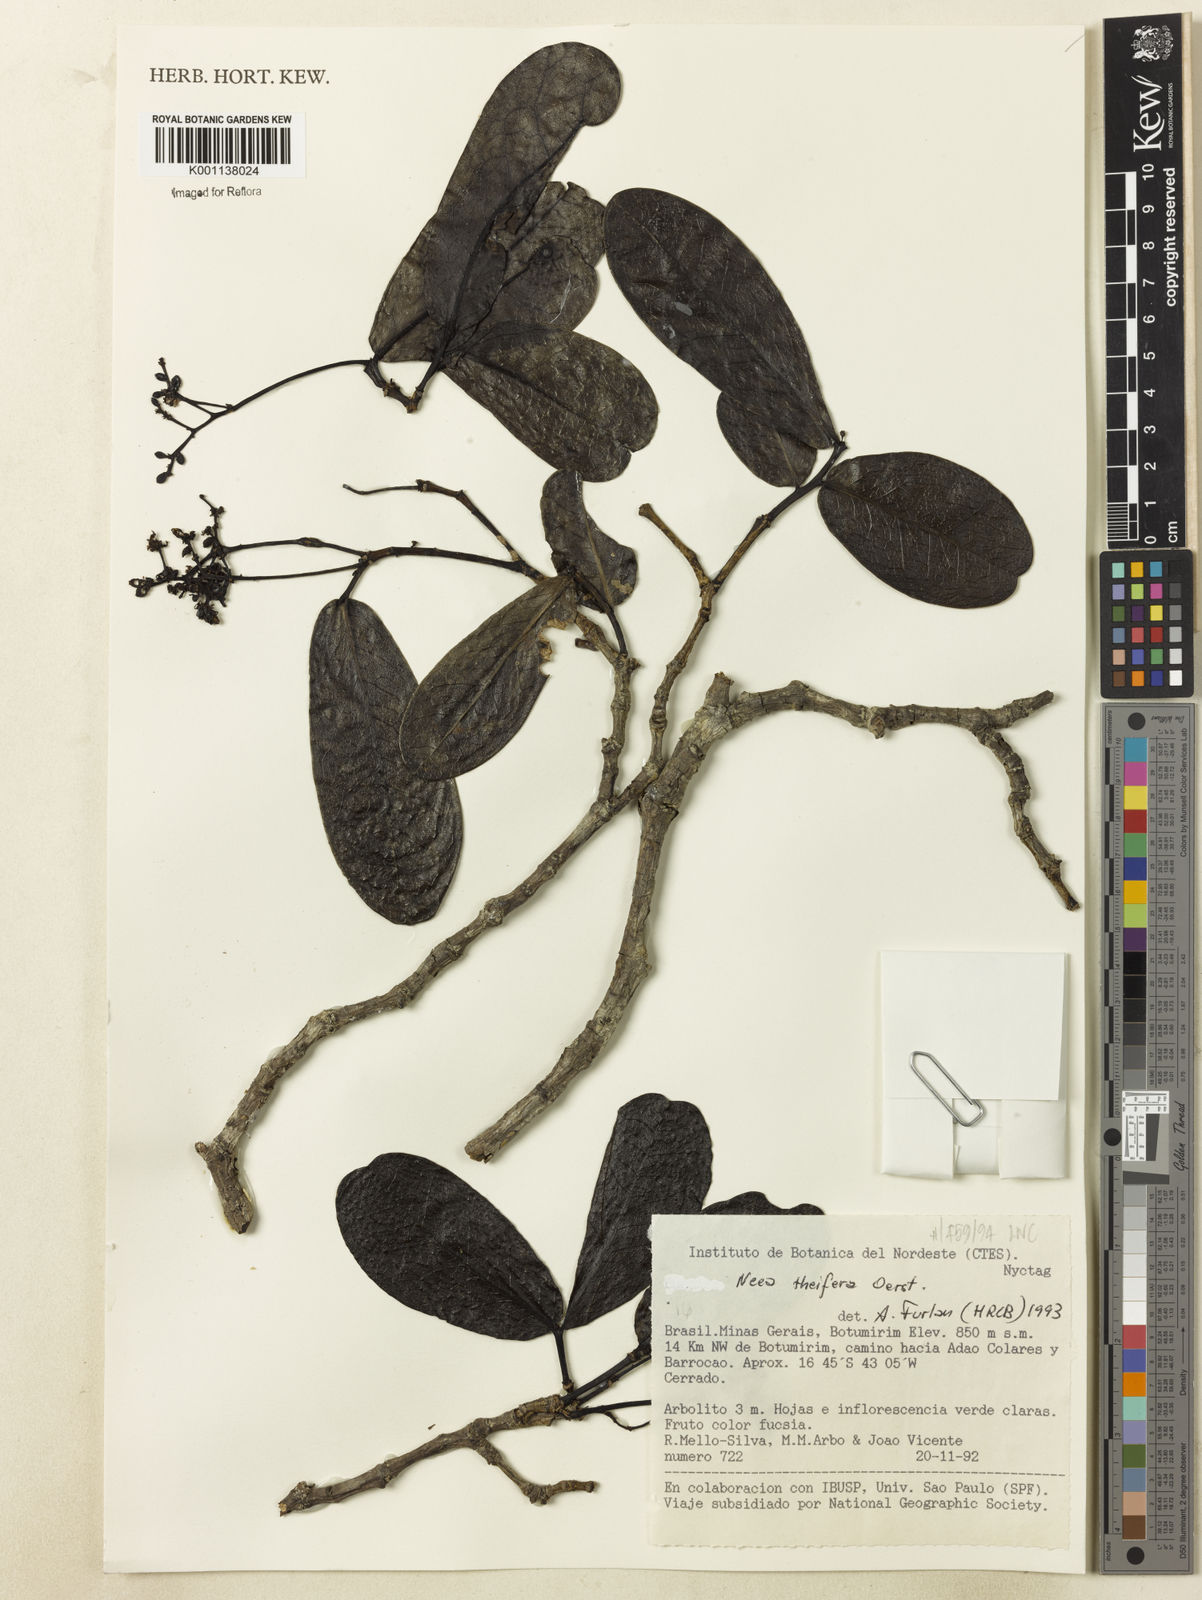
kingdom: Plantae
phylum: Tracheophyta
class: Magnoliopsida
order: Caryophyllales
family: Nyctaginaceae
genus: Neea
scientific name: Neea theifera
